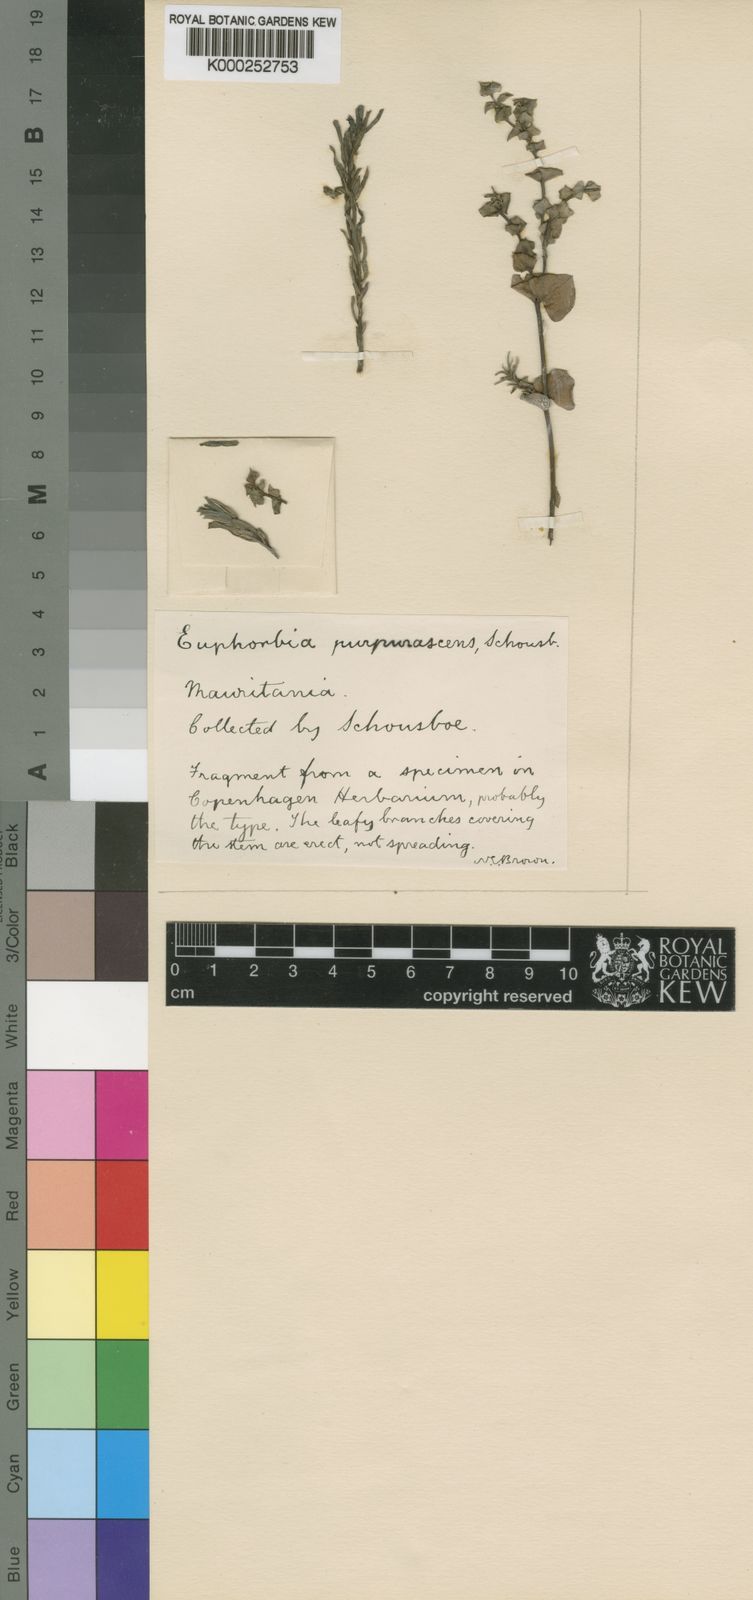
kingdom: Plantae
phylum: Tracheophyta
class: Magnoliopsida
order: Malpighiales
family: Euphorbiaceae
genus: Euphorbia
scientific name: Euphorbia portlandica
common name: Portland spurge
